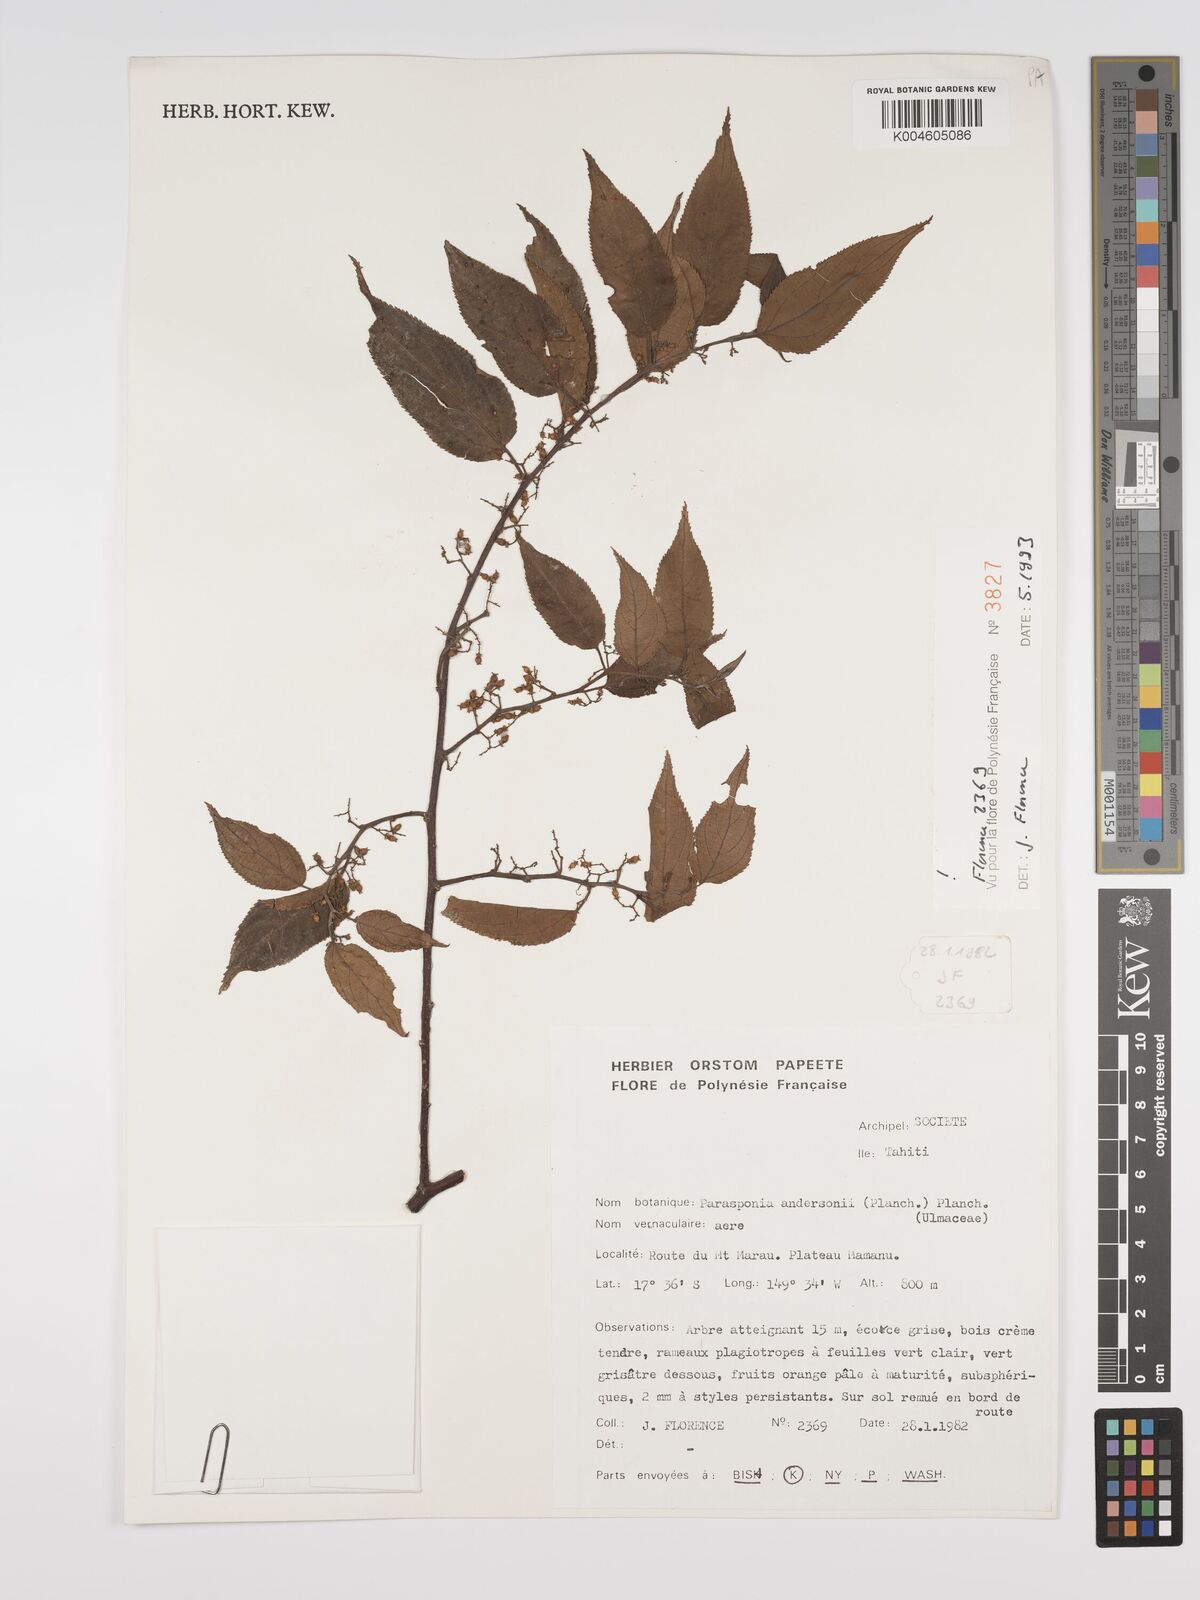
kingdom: Plantae
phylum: Tracheophyta
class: Magnoliopsida
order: Rosales
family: Cannabaceae
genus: Trema
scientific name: Trema andersonii
